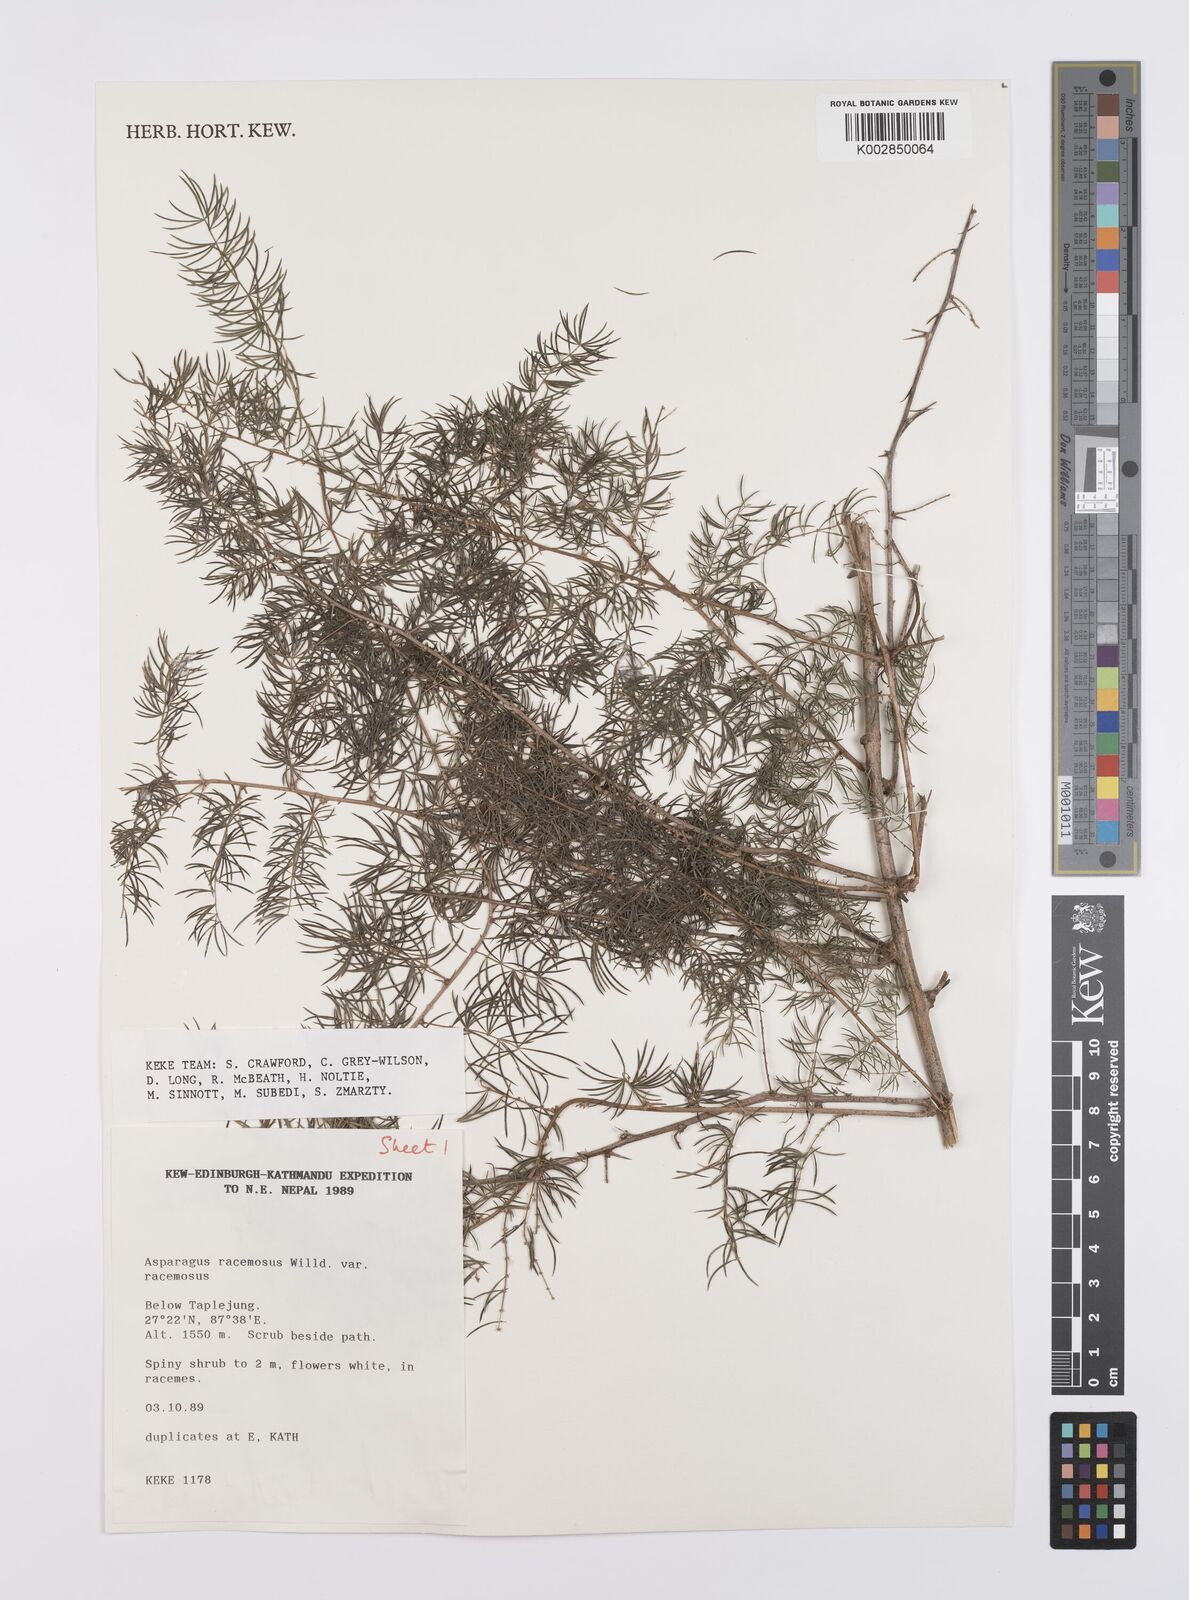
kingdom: Plantae
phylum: Tracheophyta
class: Liliopsida
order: Asparagales
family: Asparagaceae
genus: Asparagus
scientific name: Asparagus racemosus
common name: Asparagus-fern
